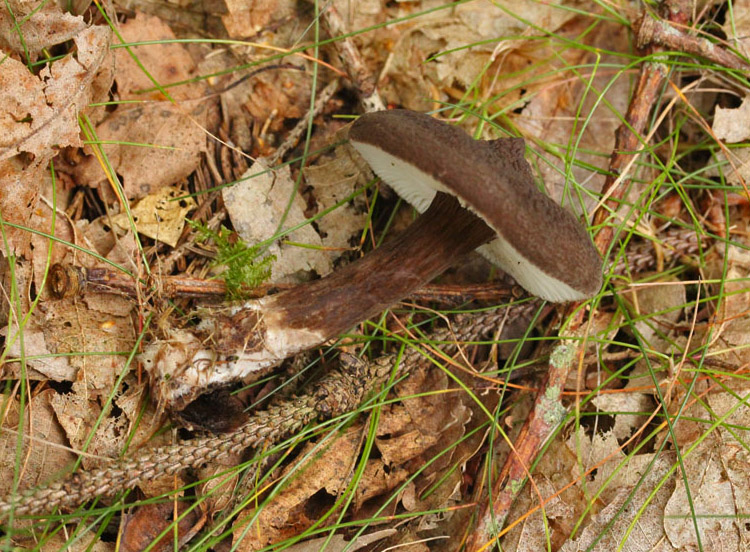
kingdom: Fungi
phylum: Basidiomycota
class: Agaricomycetes
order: Russulales
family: Russulaceae
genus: Lactarius
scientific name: Lactarius lignyotus
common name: fløjls-mælkehat
